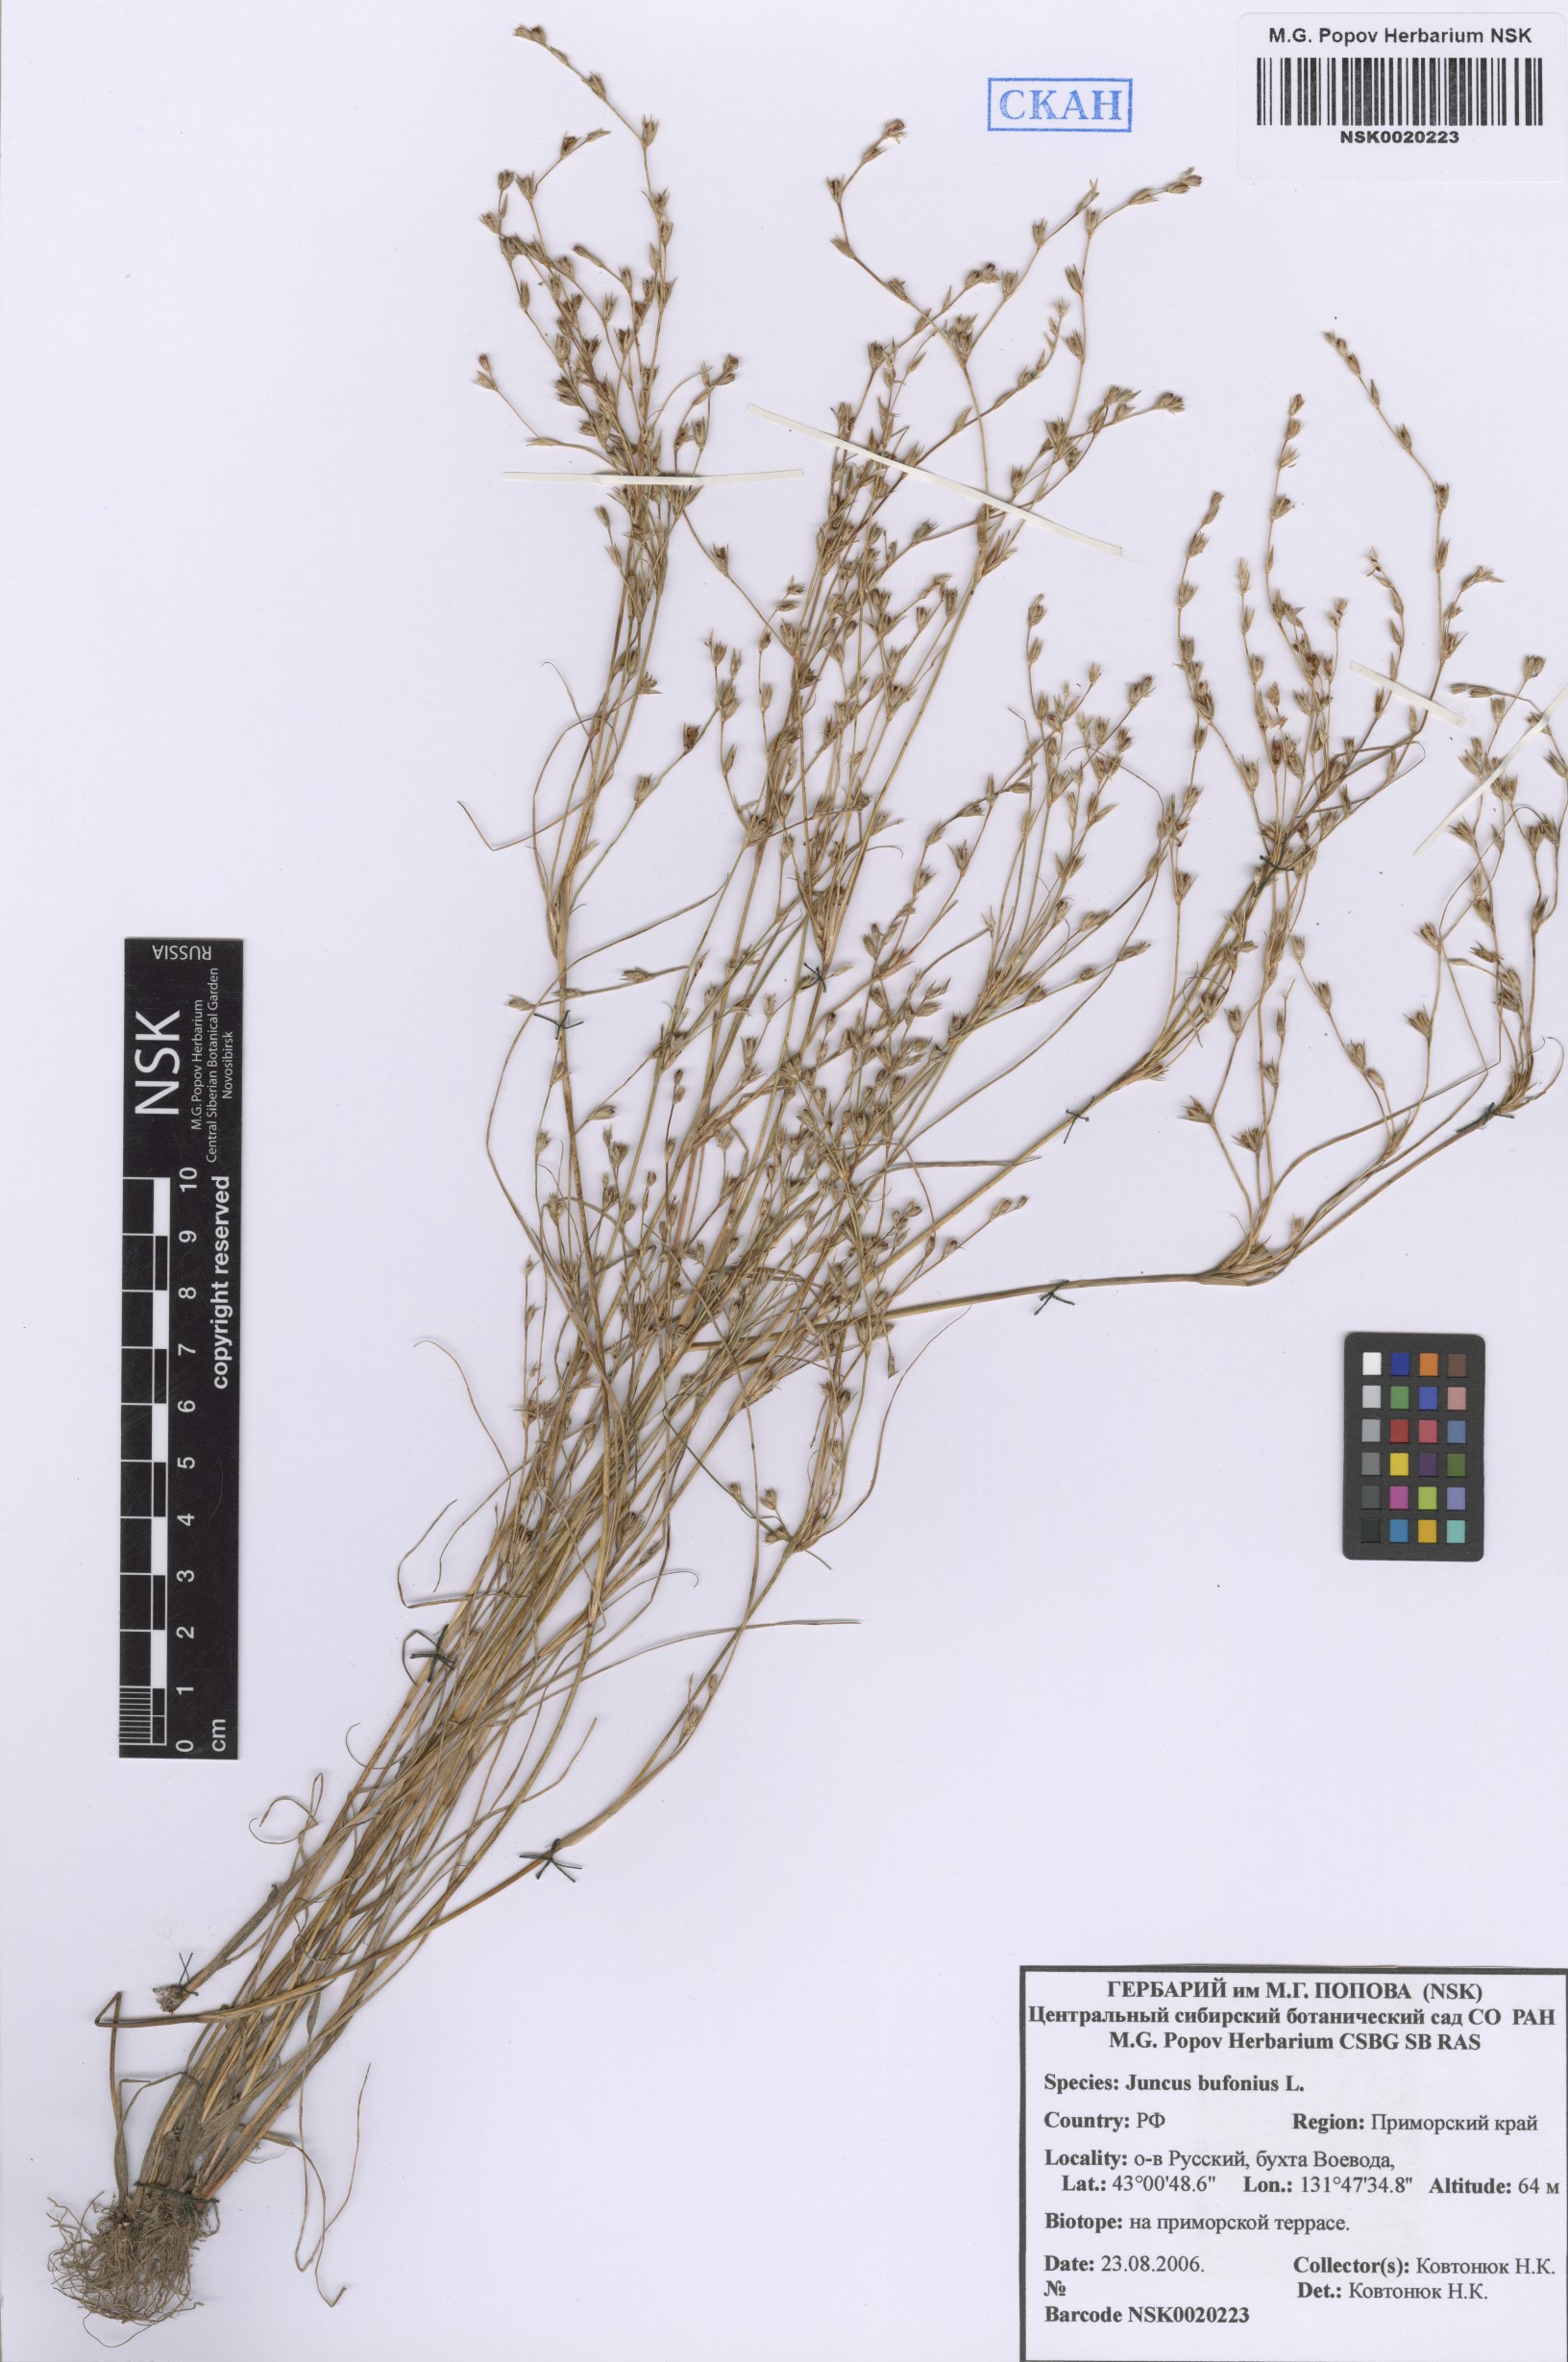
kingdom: Plantae
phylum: Tracheophyta
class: Liliopsida
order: Poales
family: Juncaceae
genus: Juncus
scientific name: Juncus bufonius
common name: Toad rush
